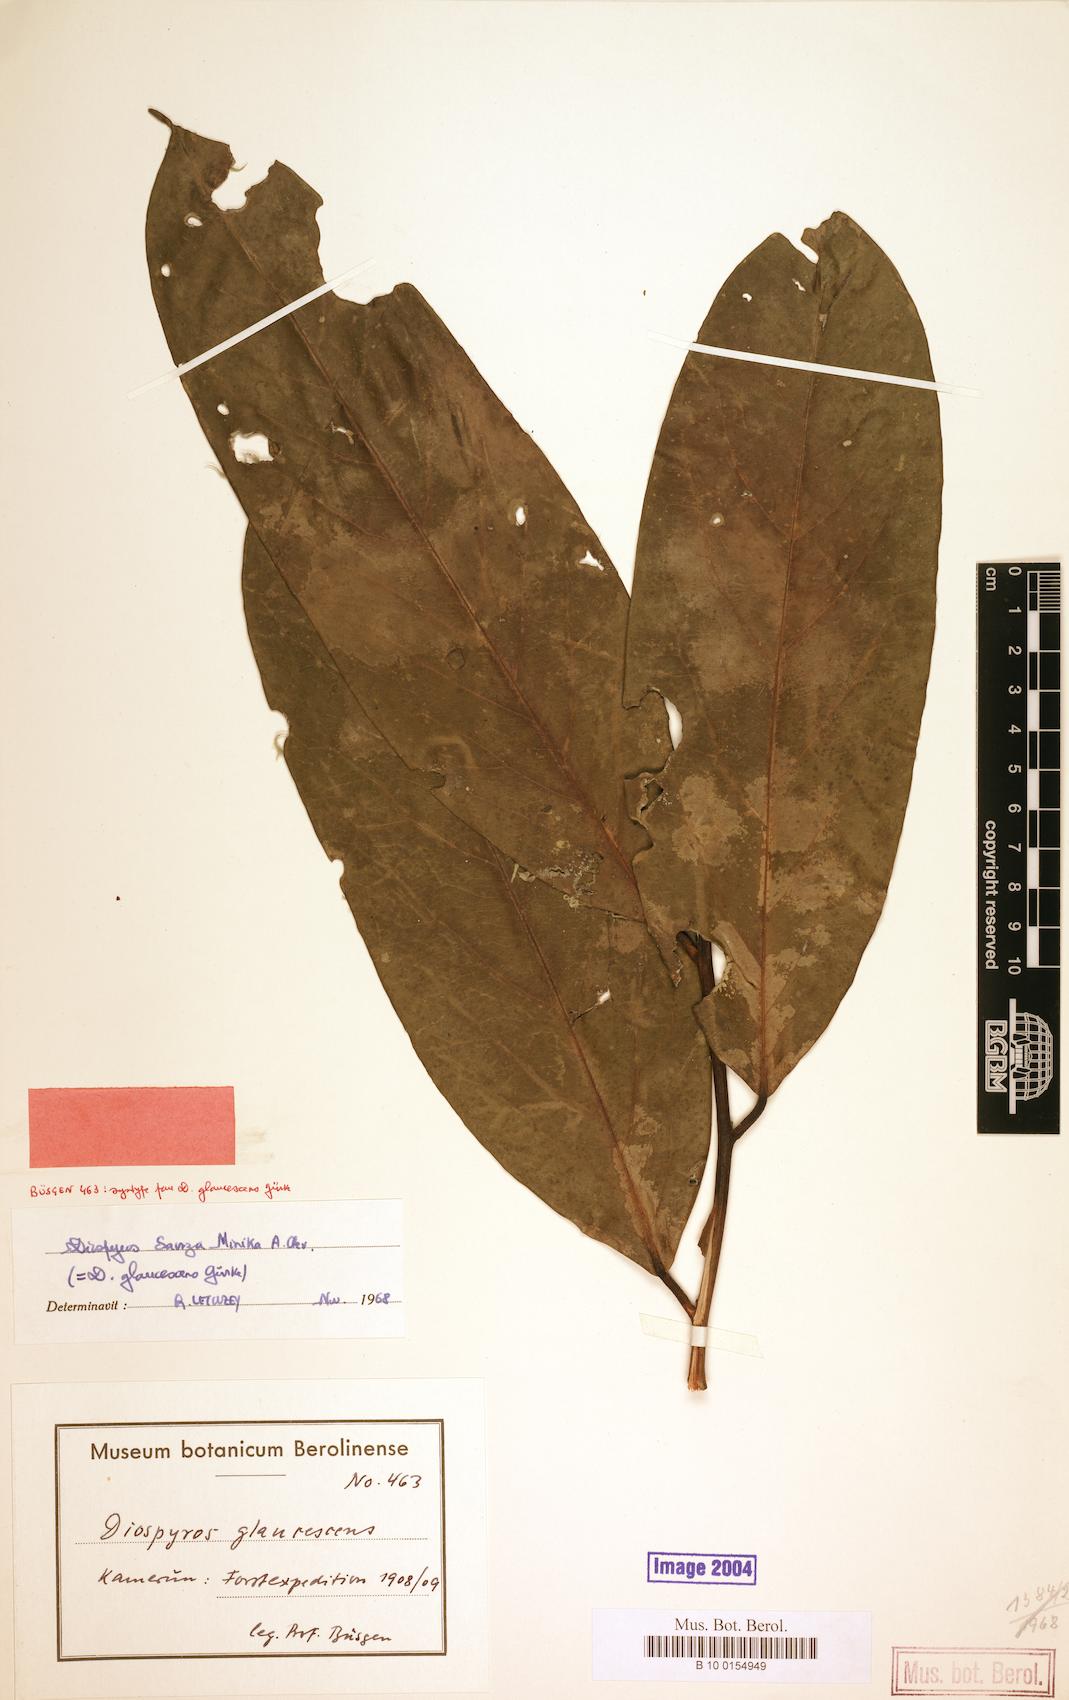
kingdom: Plantae
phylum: Tracheophyta
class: Magnoliopsida
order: Ericales
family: Ebenaceae
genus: Diospyros
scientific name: Diospyros sanza-minika
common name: Flint bark
